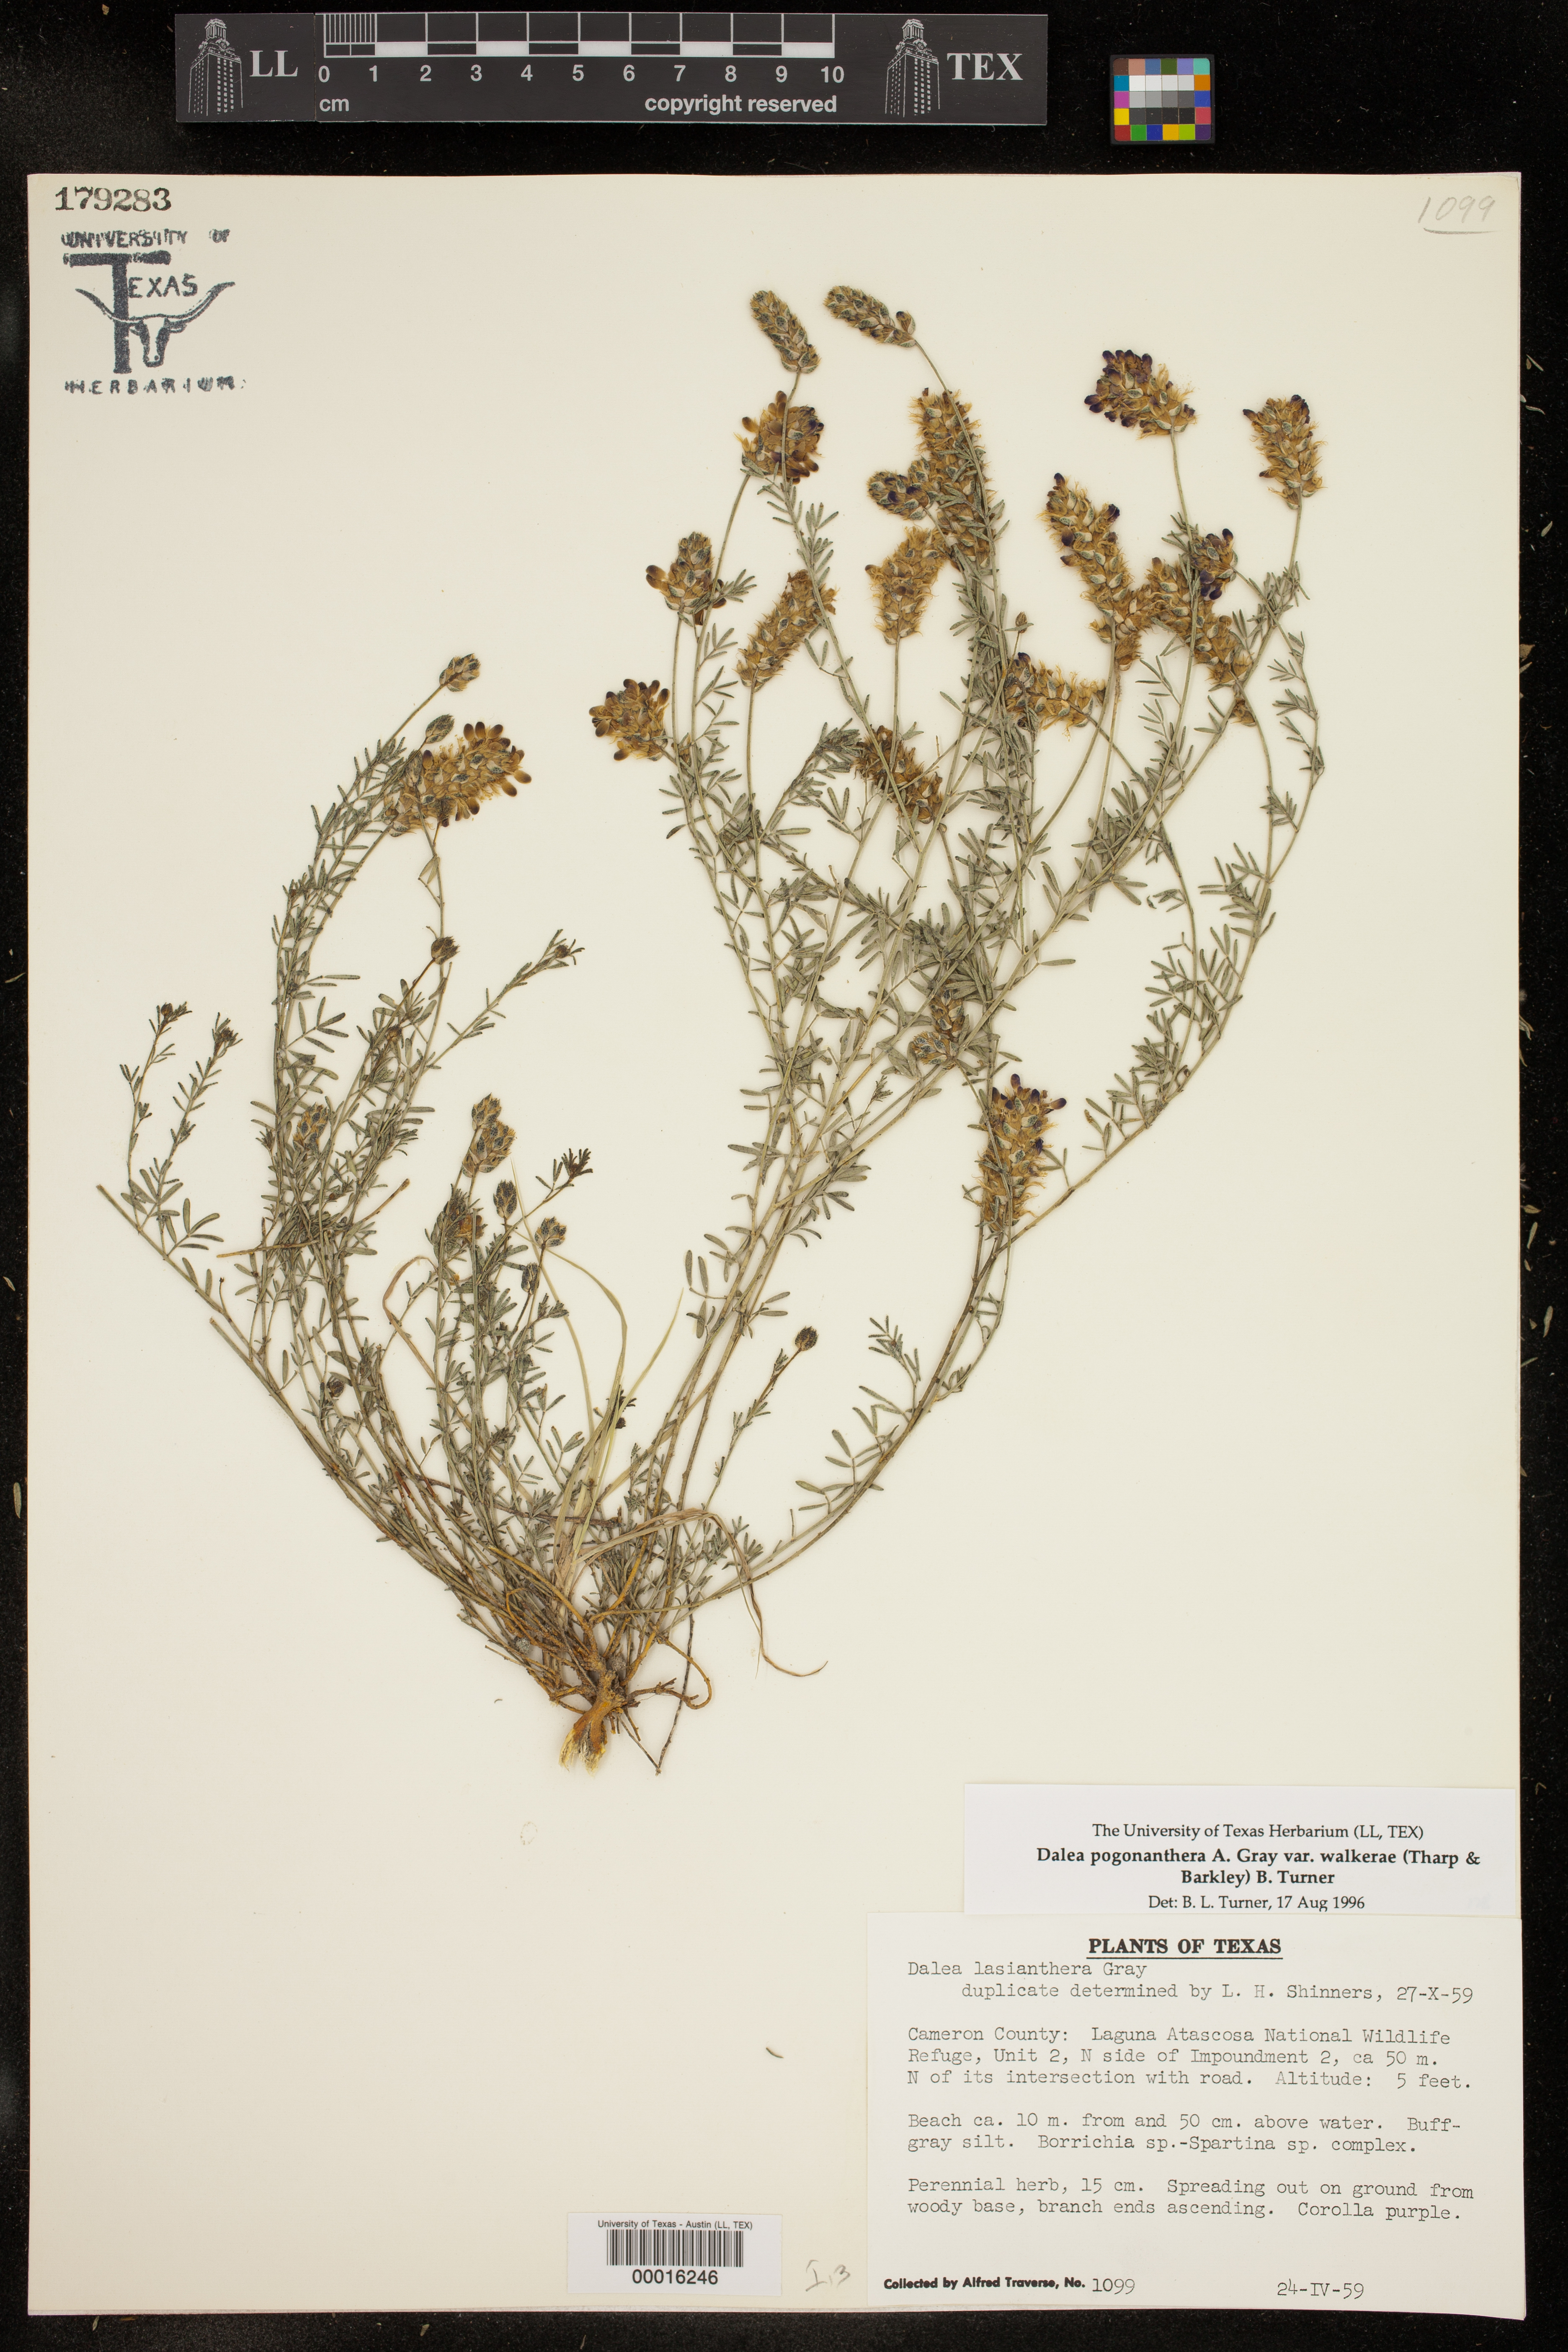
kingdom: Plantae
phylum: Tracheophyta
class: Magnoliopsida
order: Fabales
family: Fabaceae
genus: Dalea
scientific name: Dalea pogonathera
